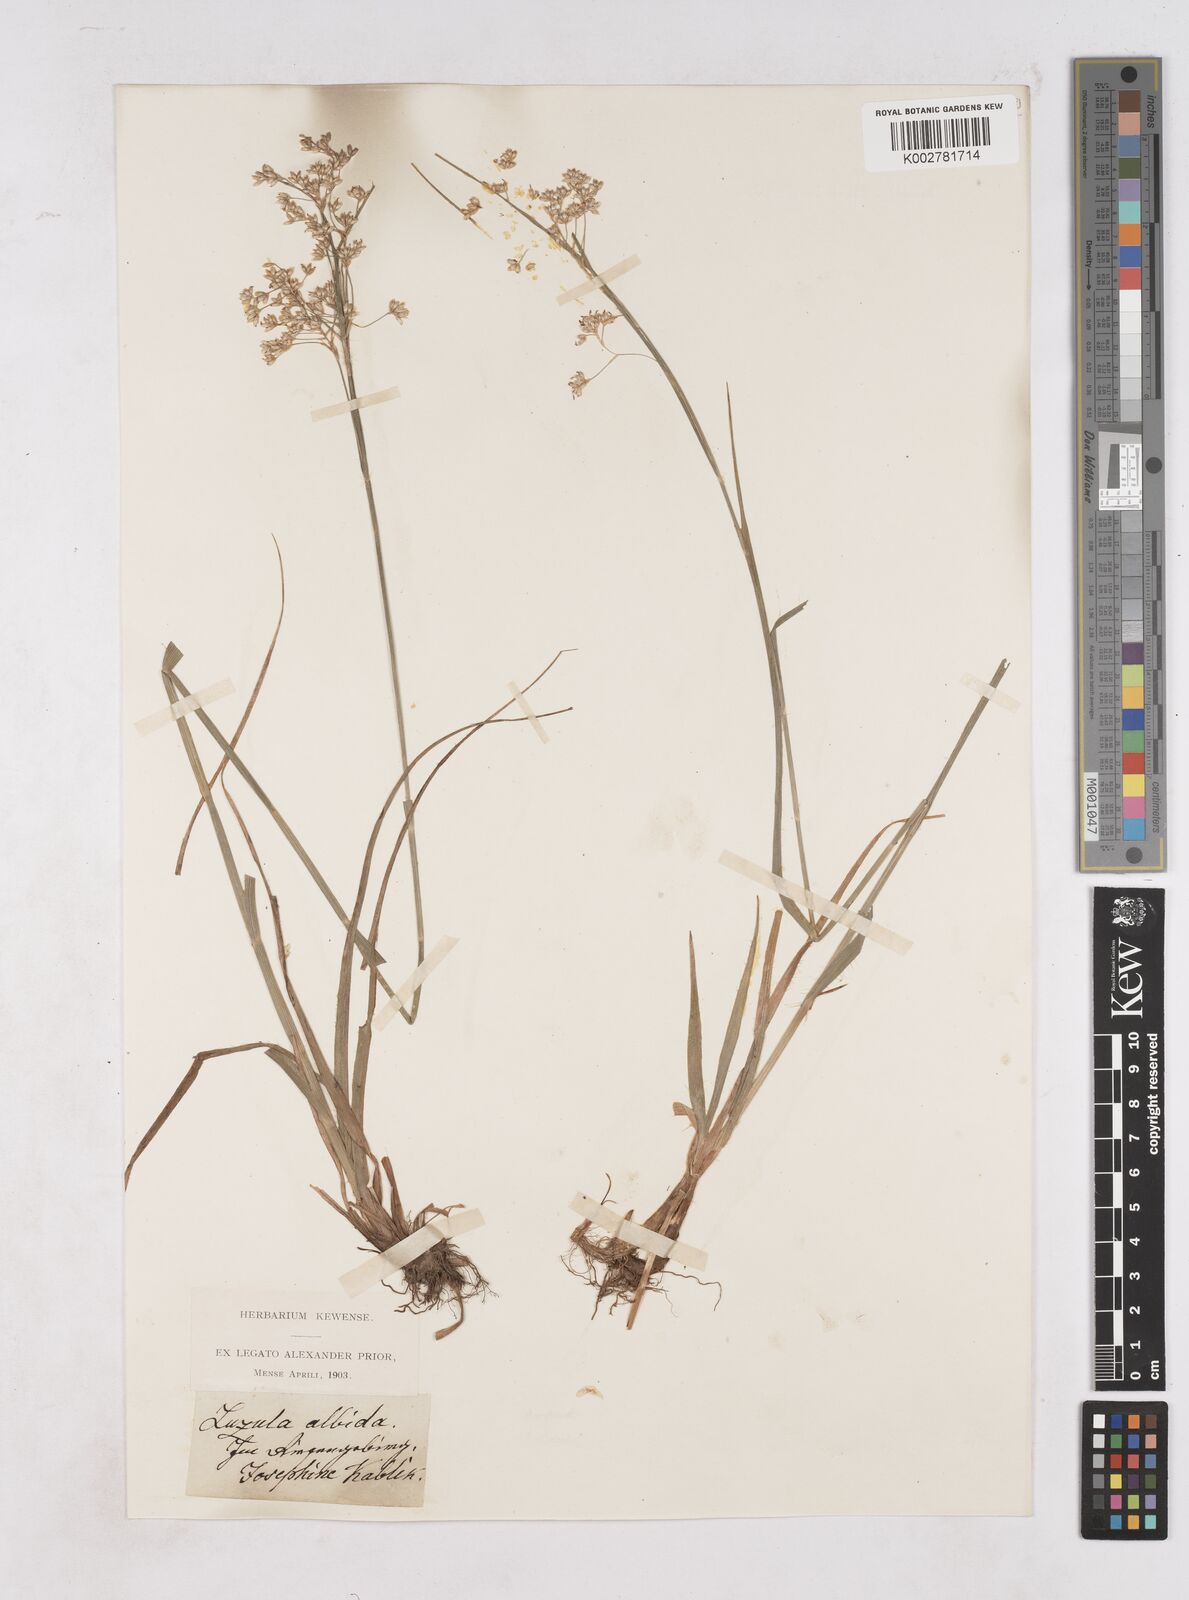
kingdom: Plantae
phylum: Tracheophyta
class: Liliopsida
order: Poales
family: Juncaceae
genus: Luzula
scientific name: Luzula luzuloides
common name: White wood-rush
